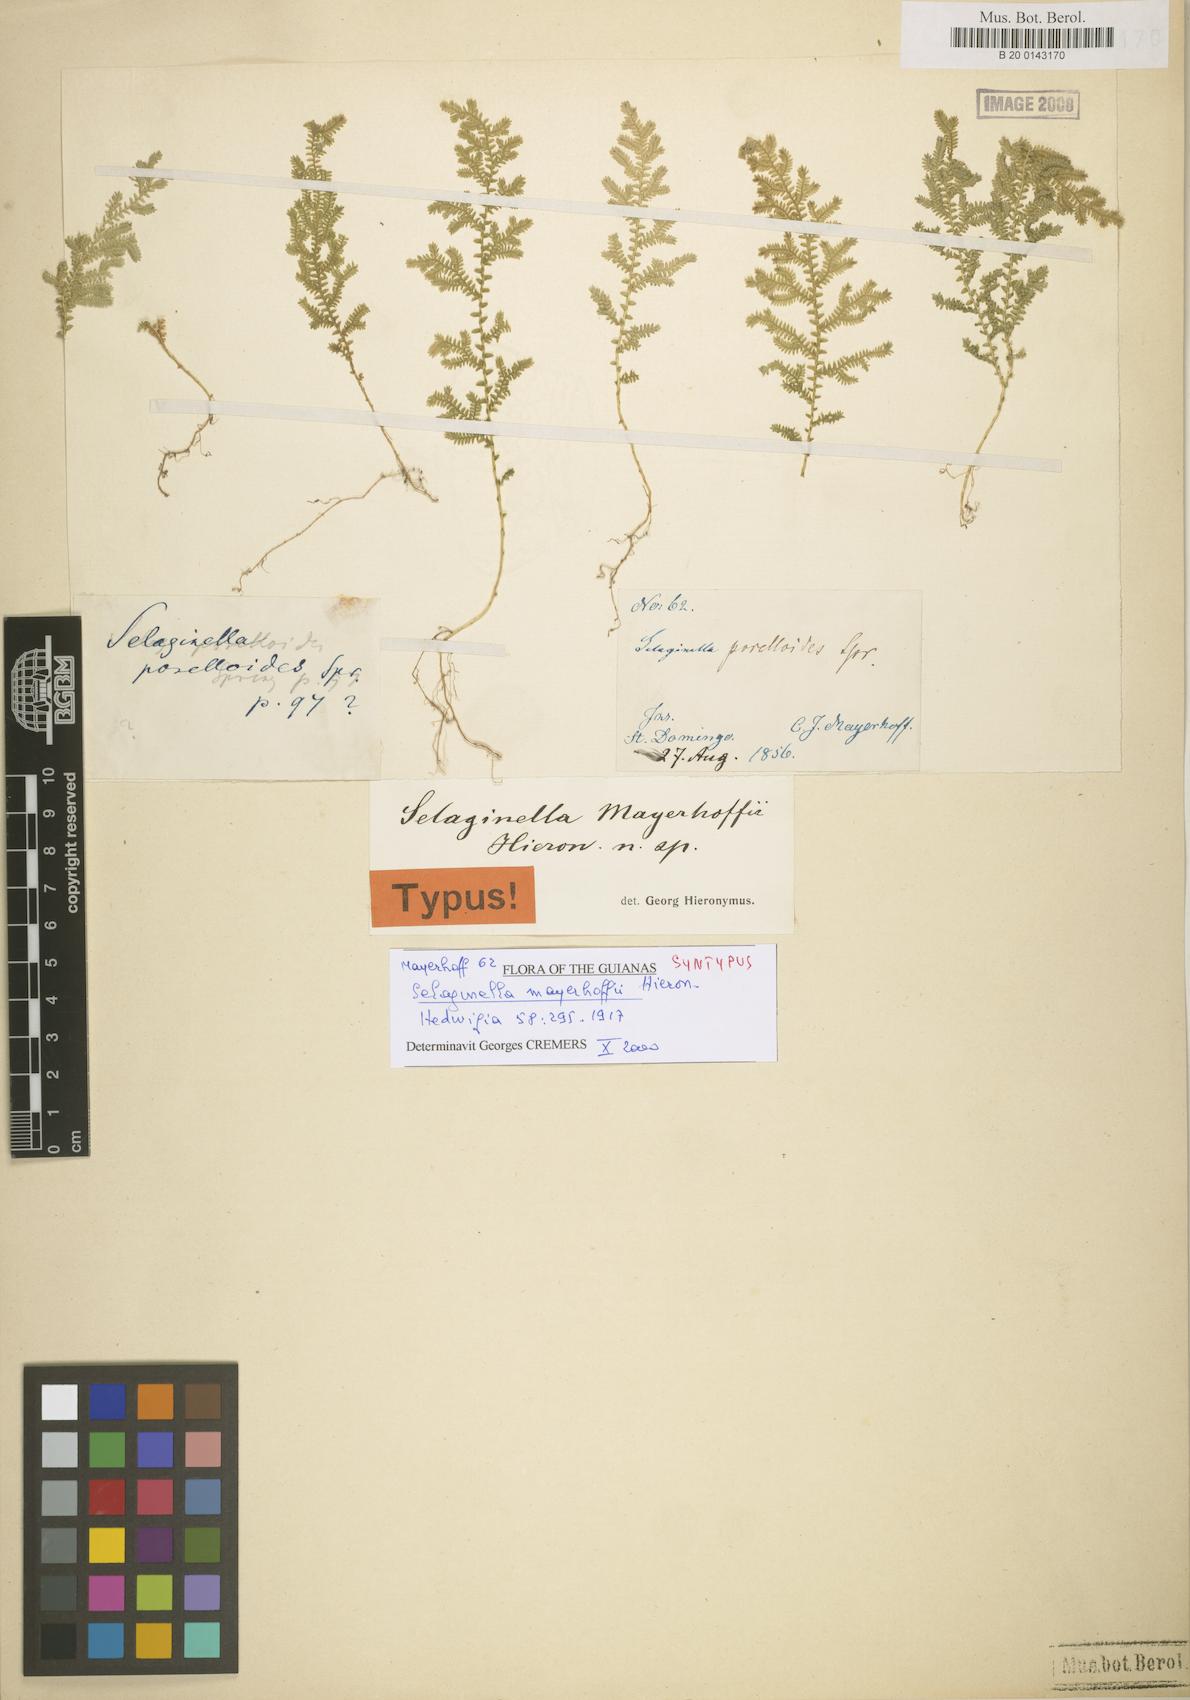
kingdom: Plantae
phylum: Tracheophyta
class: Lycopodiopsida
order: Selaginellales
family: Selaginellaceae
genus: Selaginella
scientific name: Selaginella flabellum
